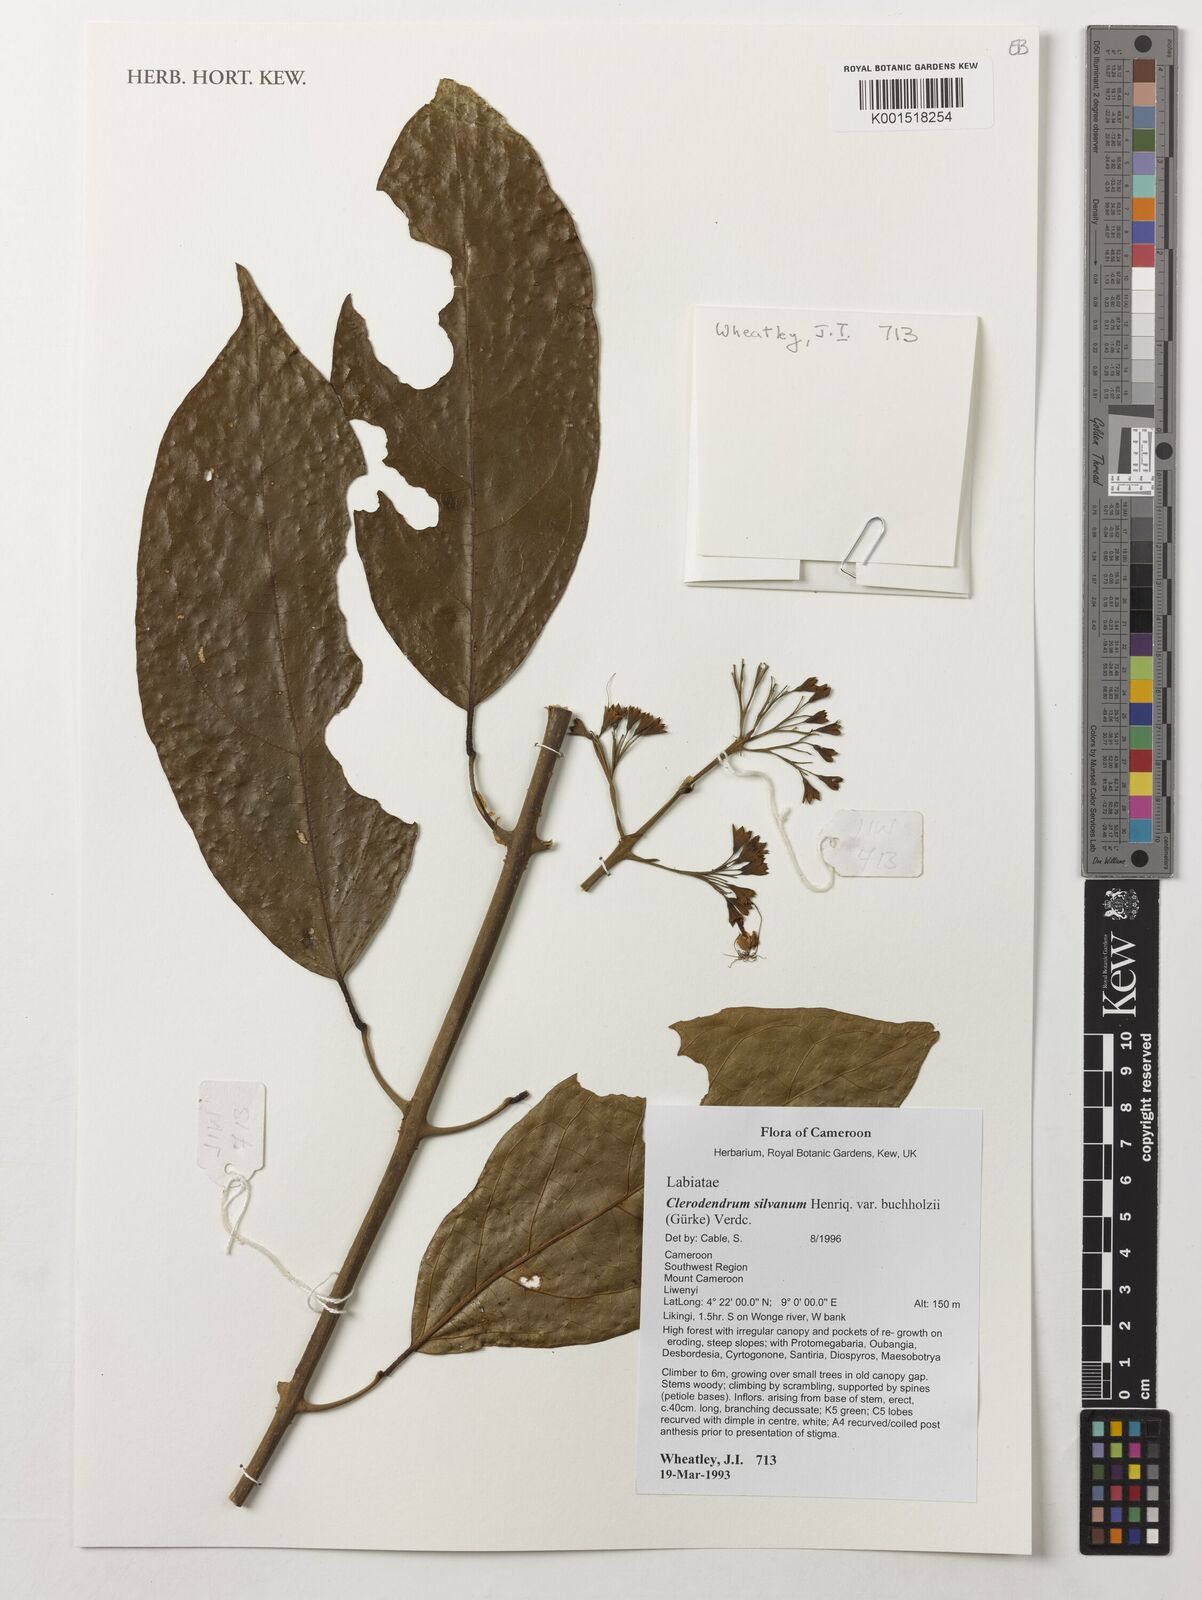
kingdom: Plantae
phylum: Tracheophyta
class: Magnoliopsida
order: Lamiales
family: Lamiaceae
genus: Clerodendrum
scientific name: Clerodendrum silvanum
